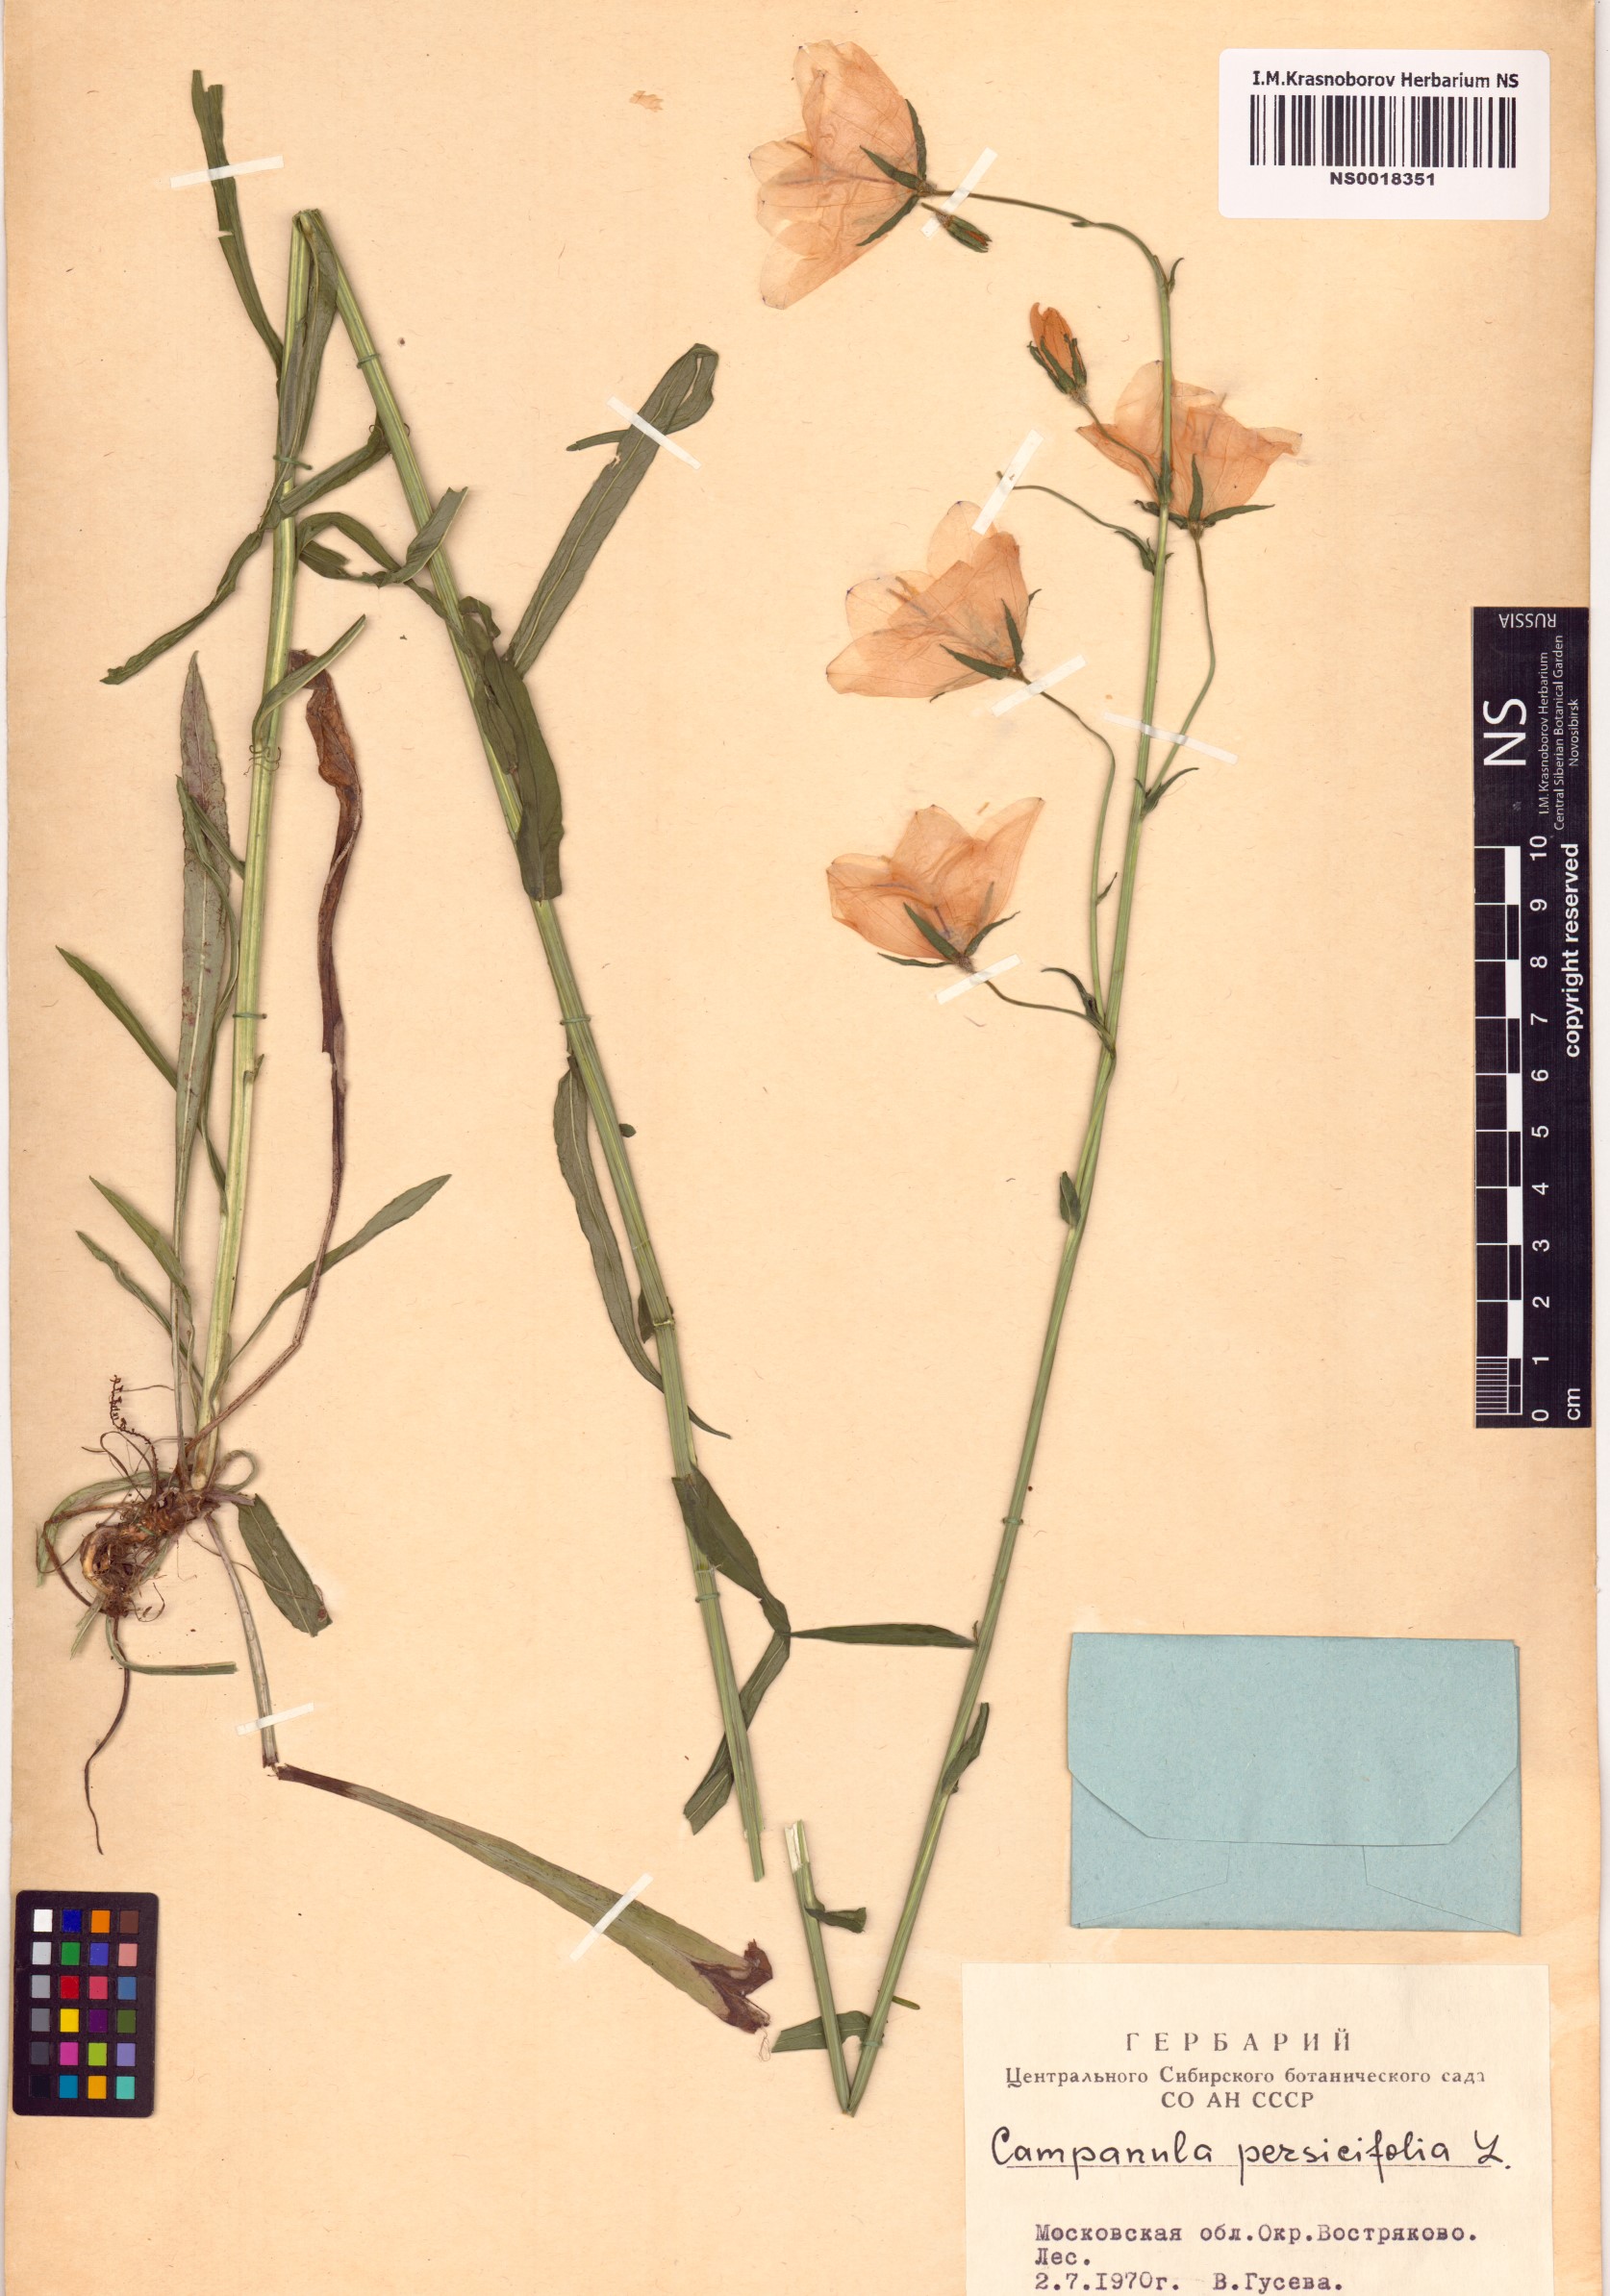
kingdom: Plantae
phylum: Tracheophyta
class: Magnoliopsida
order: Asterales
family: Campanulaceae
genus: Campanula
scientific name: Campanula persicifolia
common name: Peach-leaved bellflower
